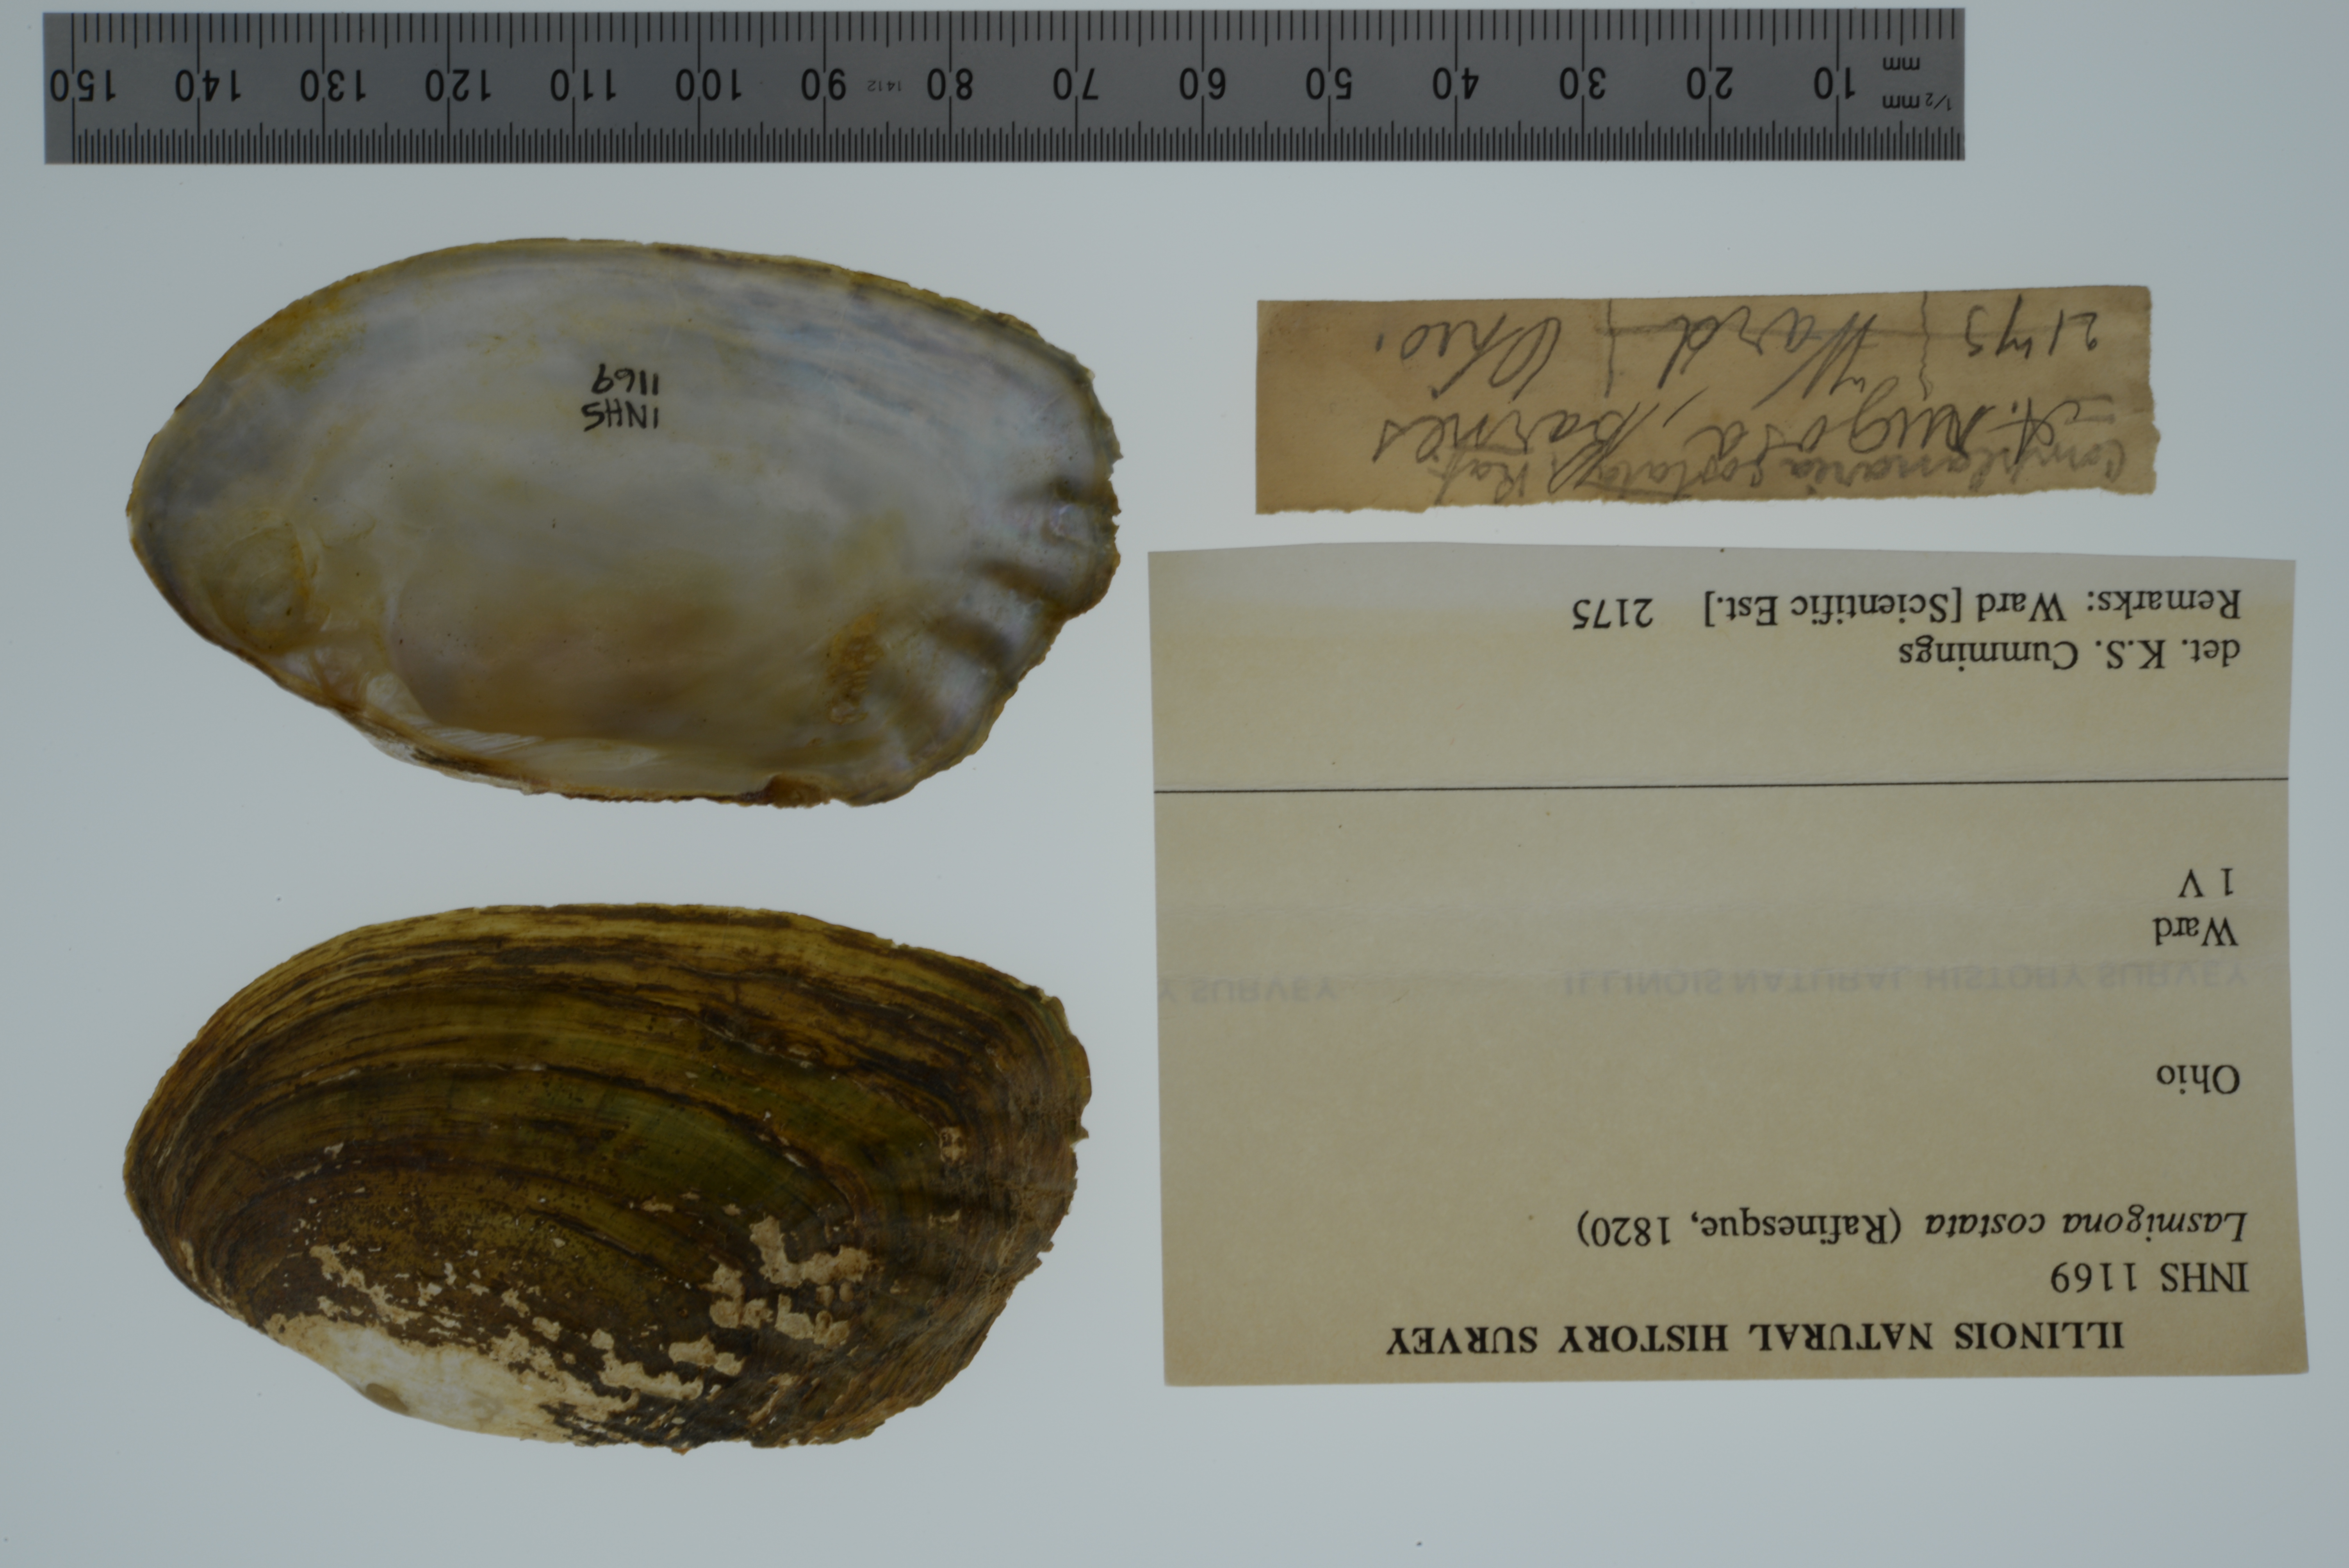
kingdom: Animalia
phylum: Mollusca
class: Bivalvia
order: Unionida
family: Unionidae
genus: Lasmigona
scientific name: Lasmigona costata
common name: Flutedshell
